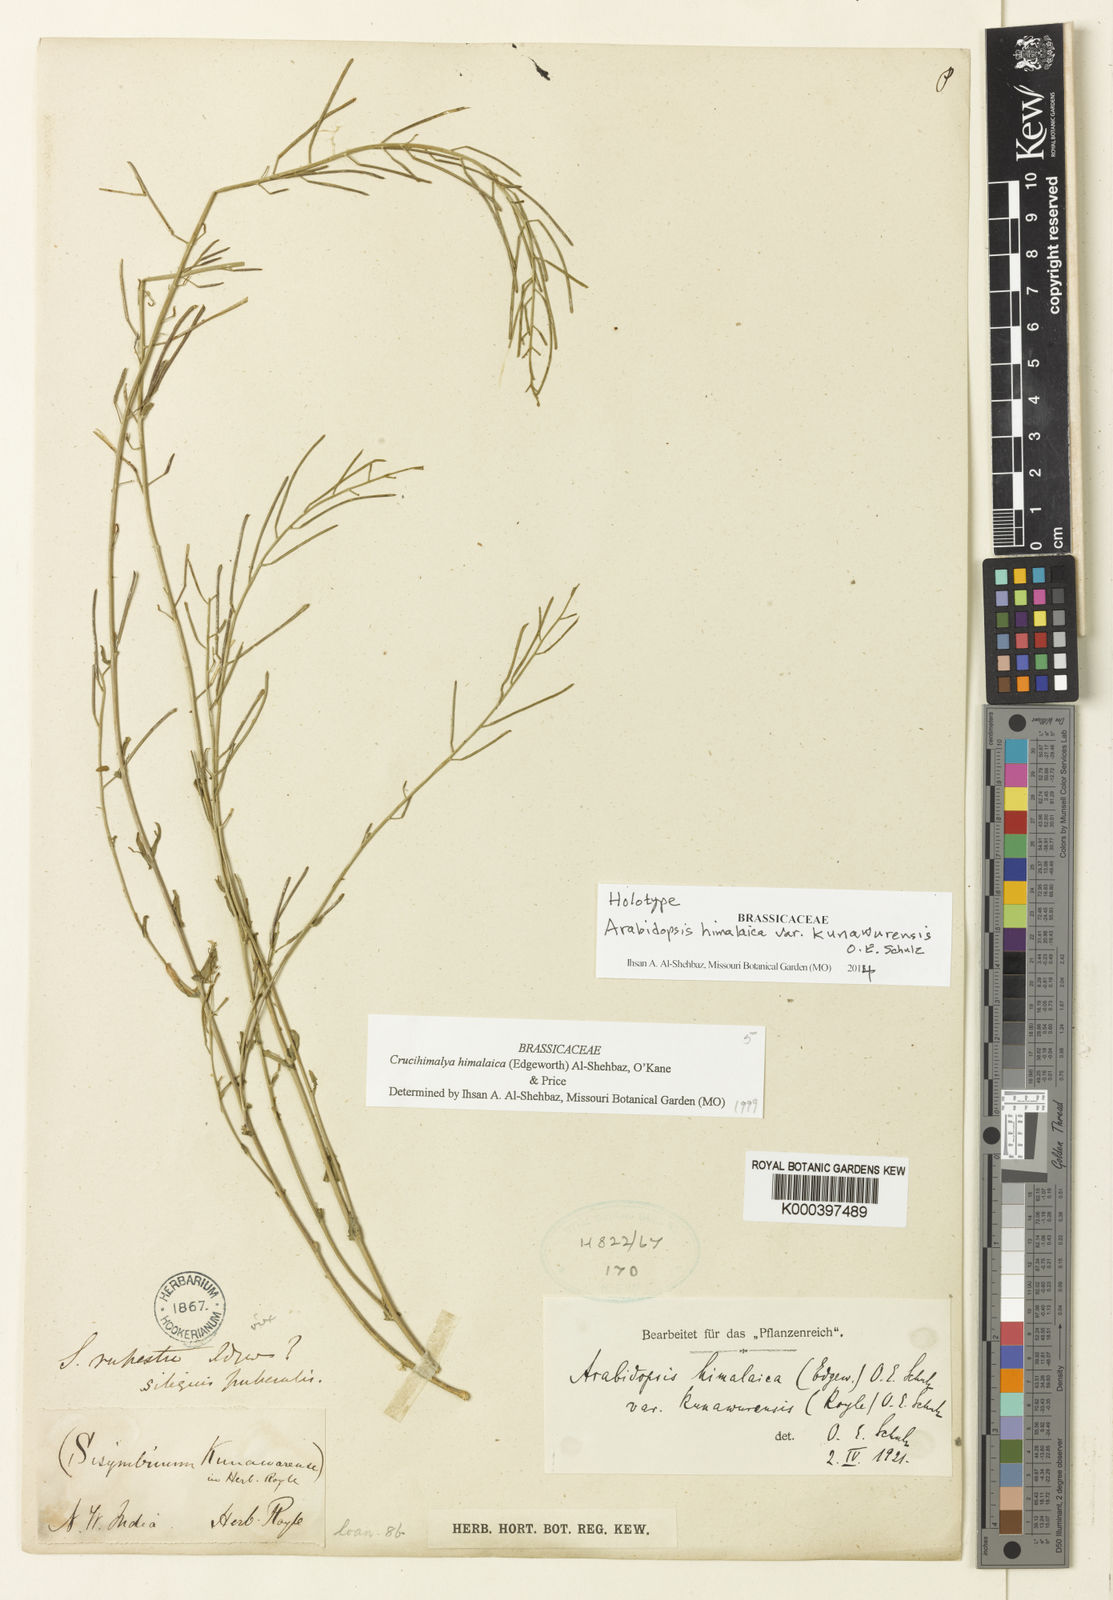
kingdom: Plantae
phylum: Tracheophyta
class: Magnoliopsida
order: Brassicales
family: Brassicaceae
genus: Crucihimalaya
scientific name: Crucihimalaya himalaica
